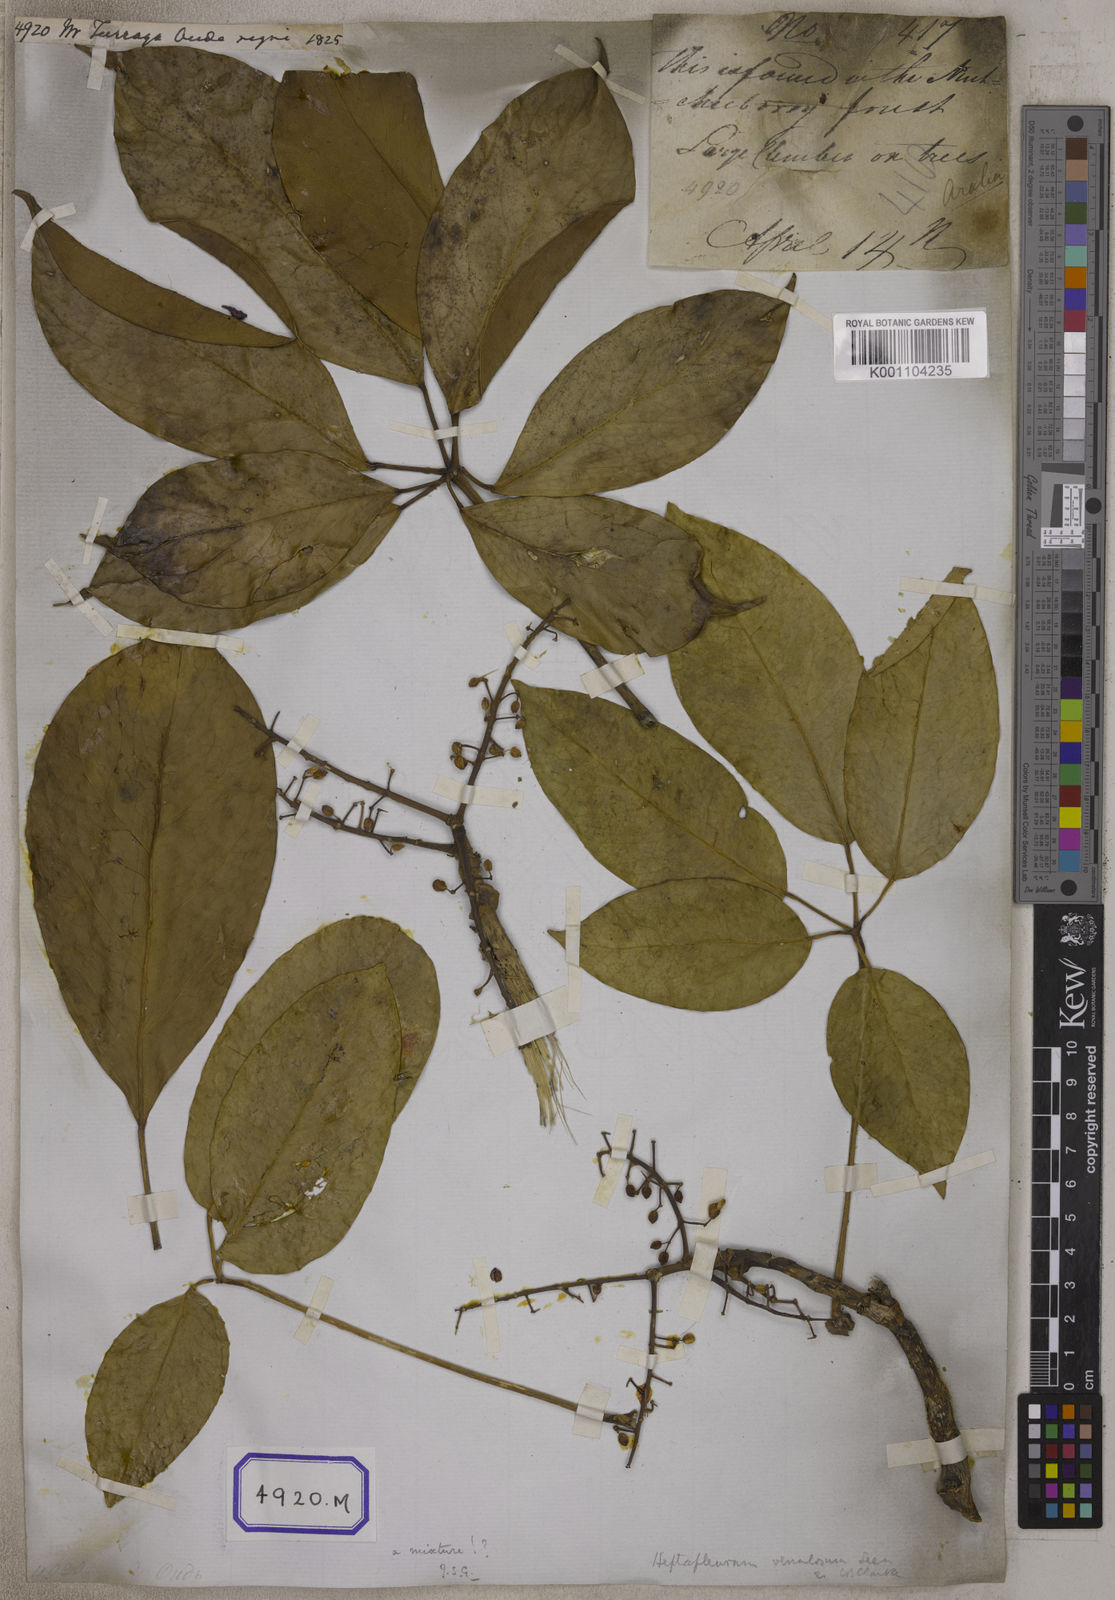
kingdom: Plantae
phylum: Tracheophyta
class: Magnoliopsida
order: Apiales
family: Araliaceae
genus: Hedera
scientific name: Hedera
